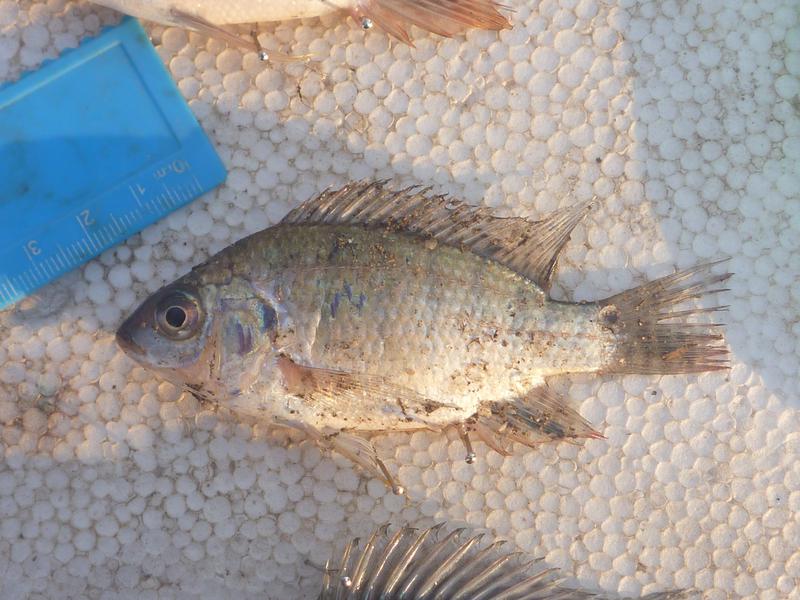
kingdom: Animalia
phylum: Chordata
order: Perciformes
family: Cichlidae
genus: Oreochromis
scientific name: Oreochromis niloticus
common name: Nile tilapia
